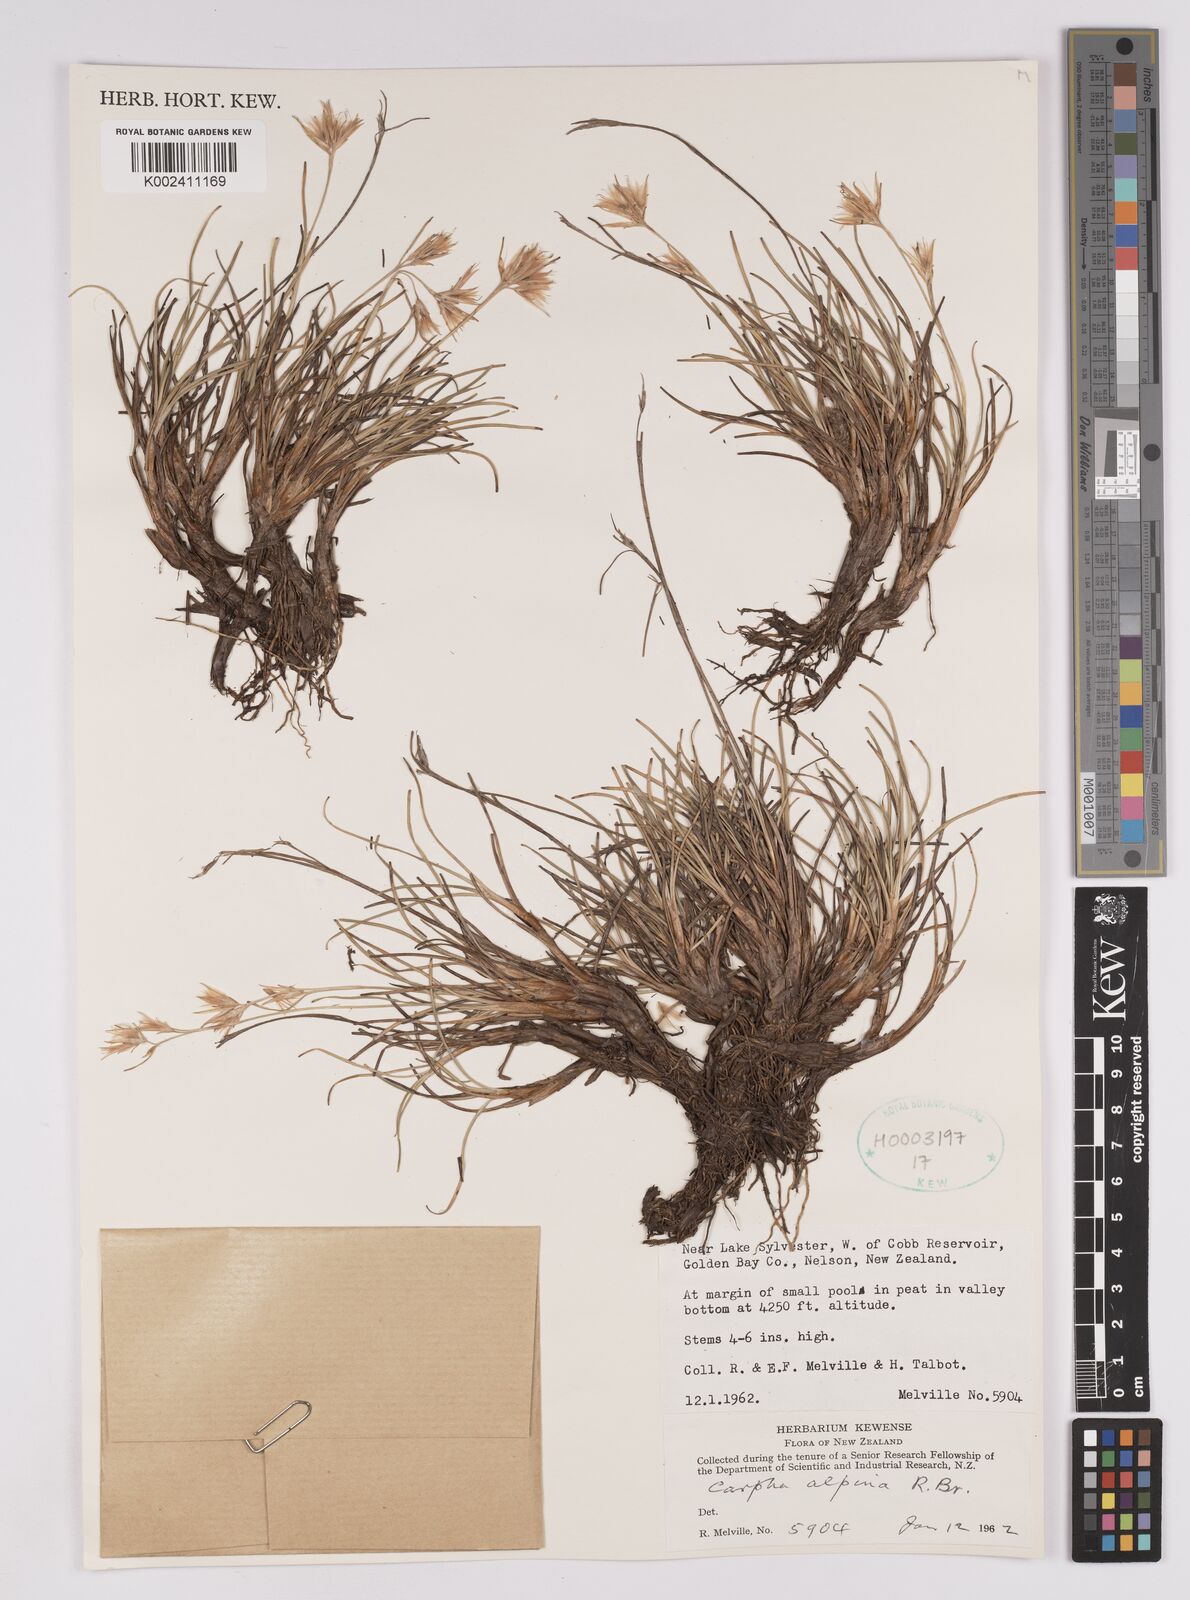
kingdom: Plantae
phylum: Tracheophyta
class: Liliopsida
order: Poales
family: Cyperaceae
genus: Carpha
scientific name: Carpha alpina
